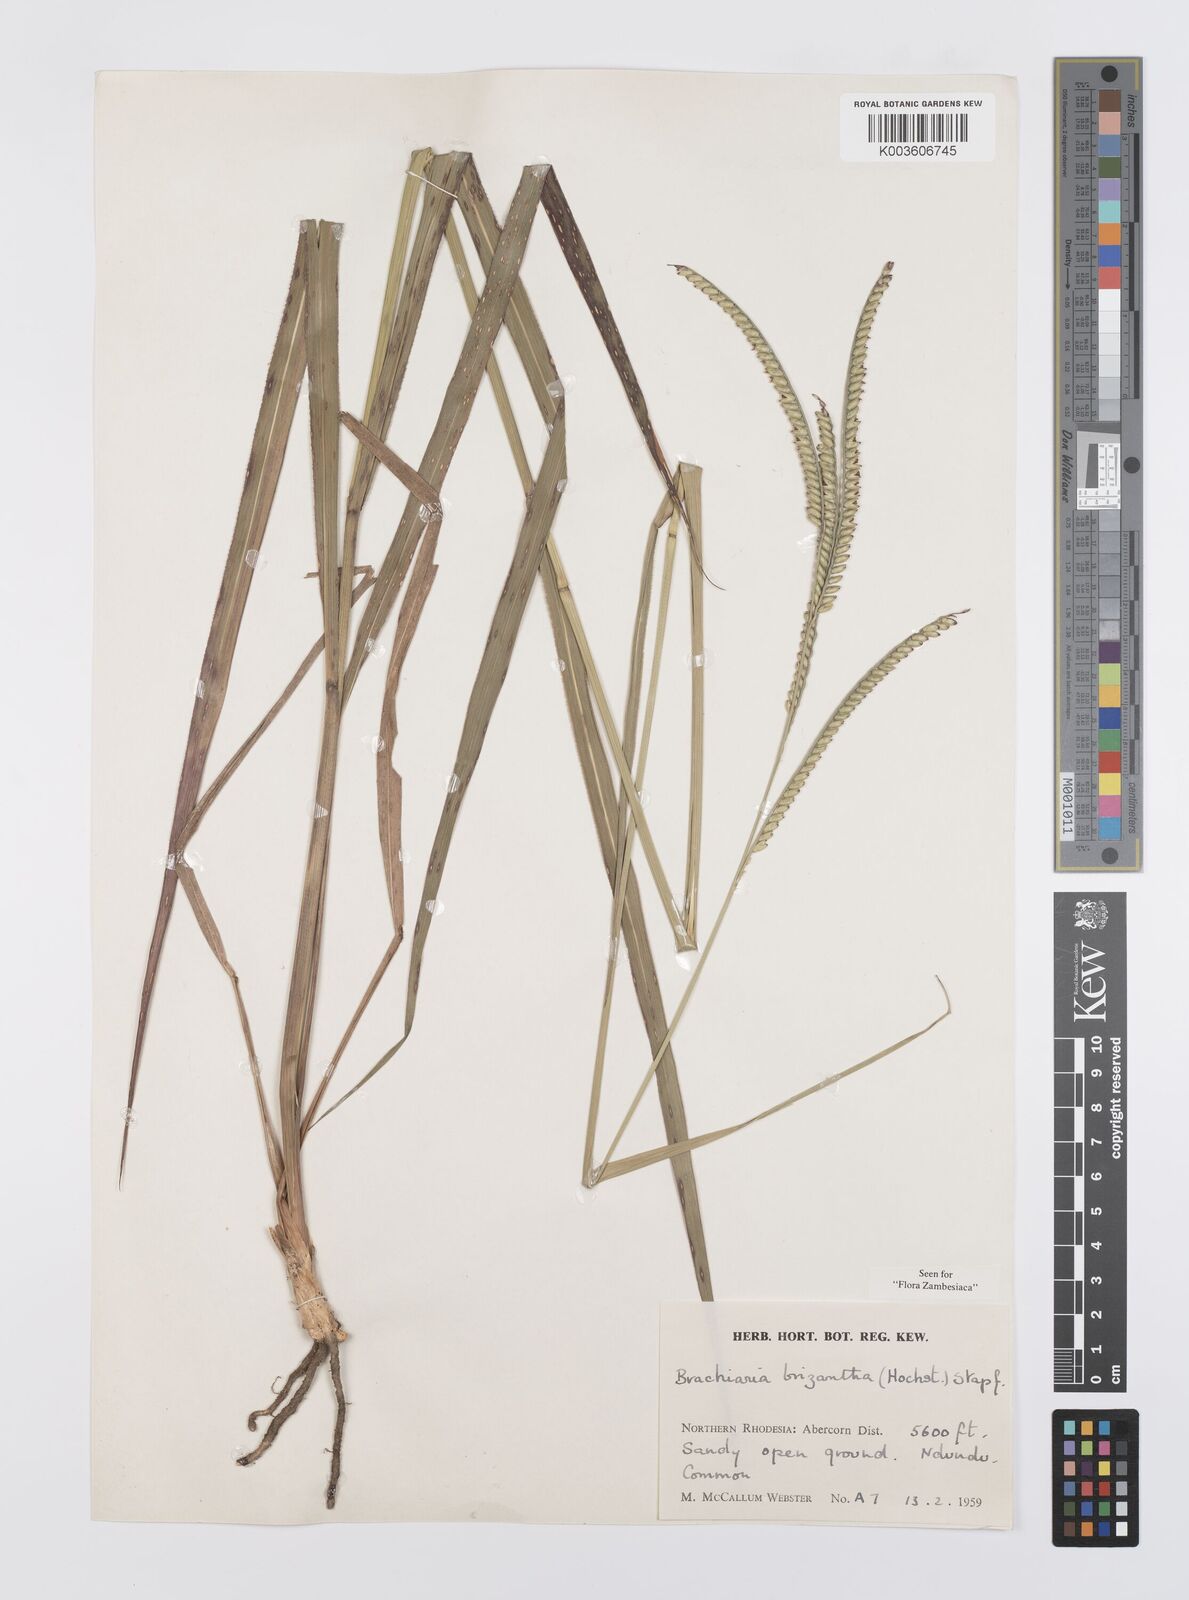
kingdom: Plantae
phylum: Tracheophyta
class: Liliopsida
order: Poales
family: Poaceae
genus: Urochloa
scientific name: Urochloa brizantha
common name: Palisade signalgrass
